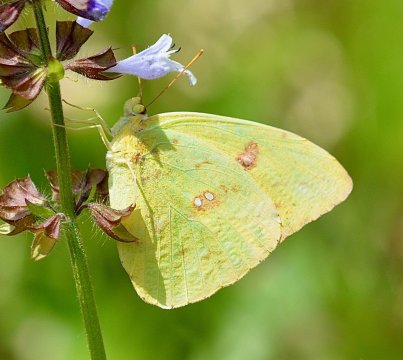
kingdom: Animalia
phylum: Arthropoda
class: Insecta
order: Lepidoptera
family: Pieridae
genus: Phoebis
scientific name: Phoebis sennae
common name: Cloudless Sulphur
